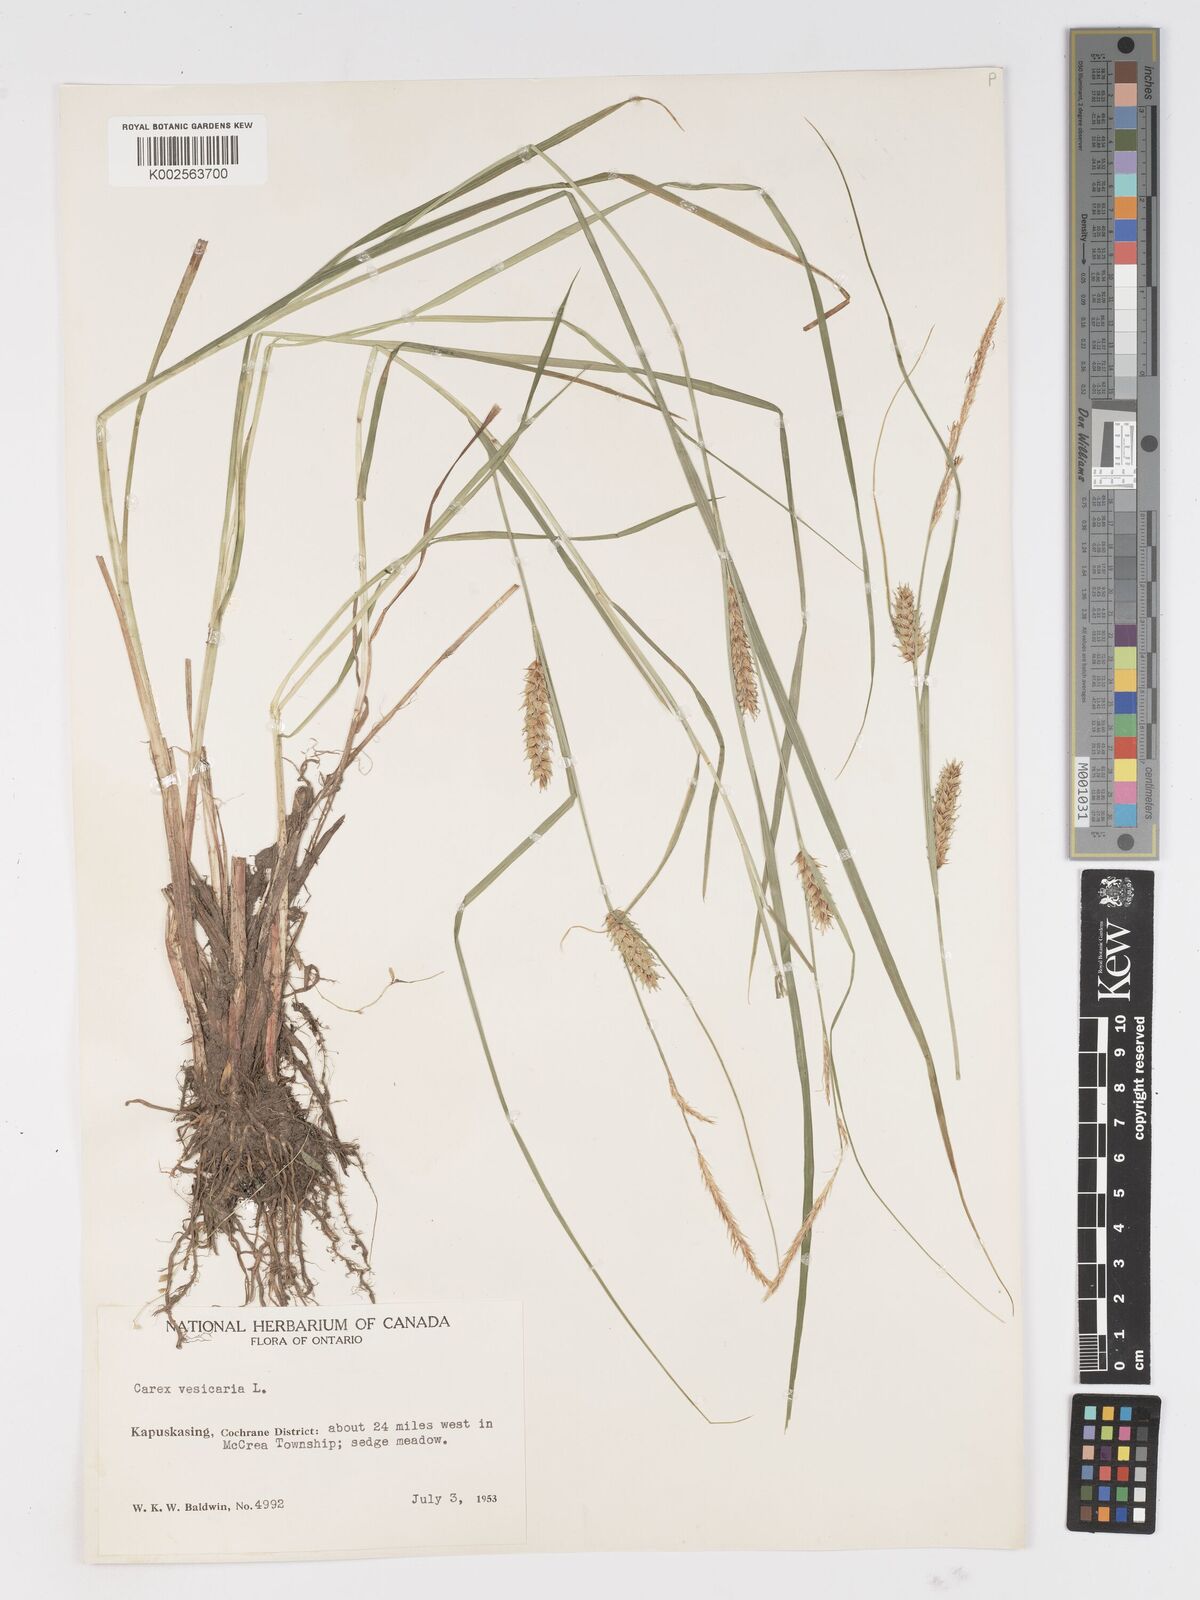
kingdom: Plantae
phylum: Tracheophyta
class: Liliopsida
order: Poales
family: Cyperaceae
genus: Carex
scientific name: Carex vesicaria
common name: Bladder-sedge
